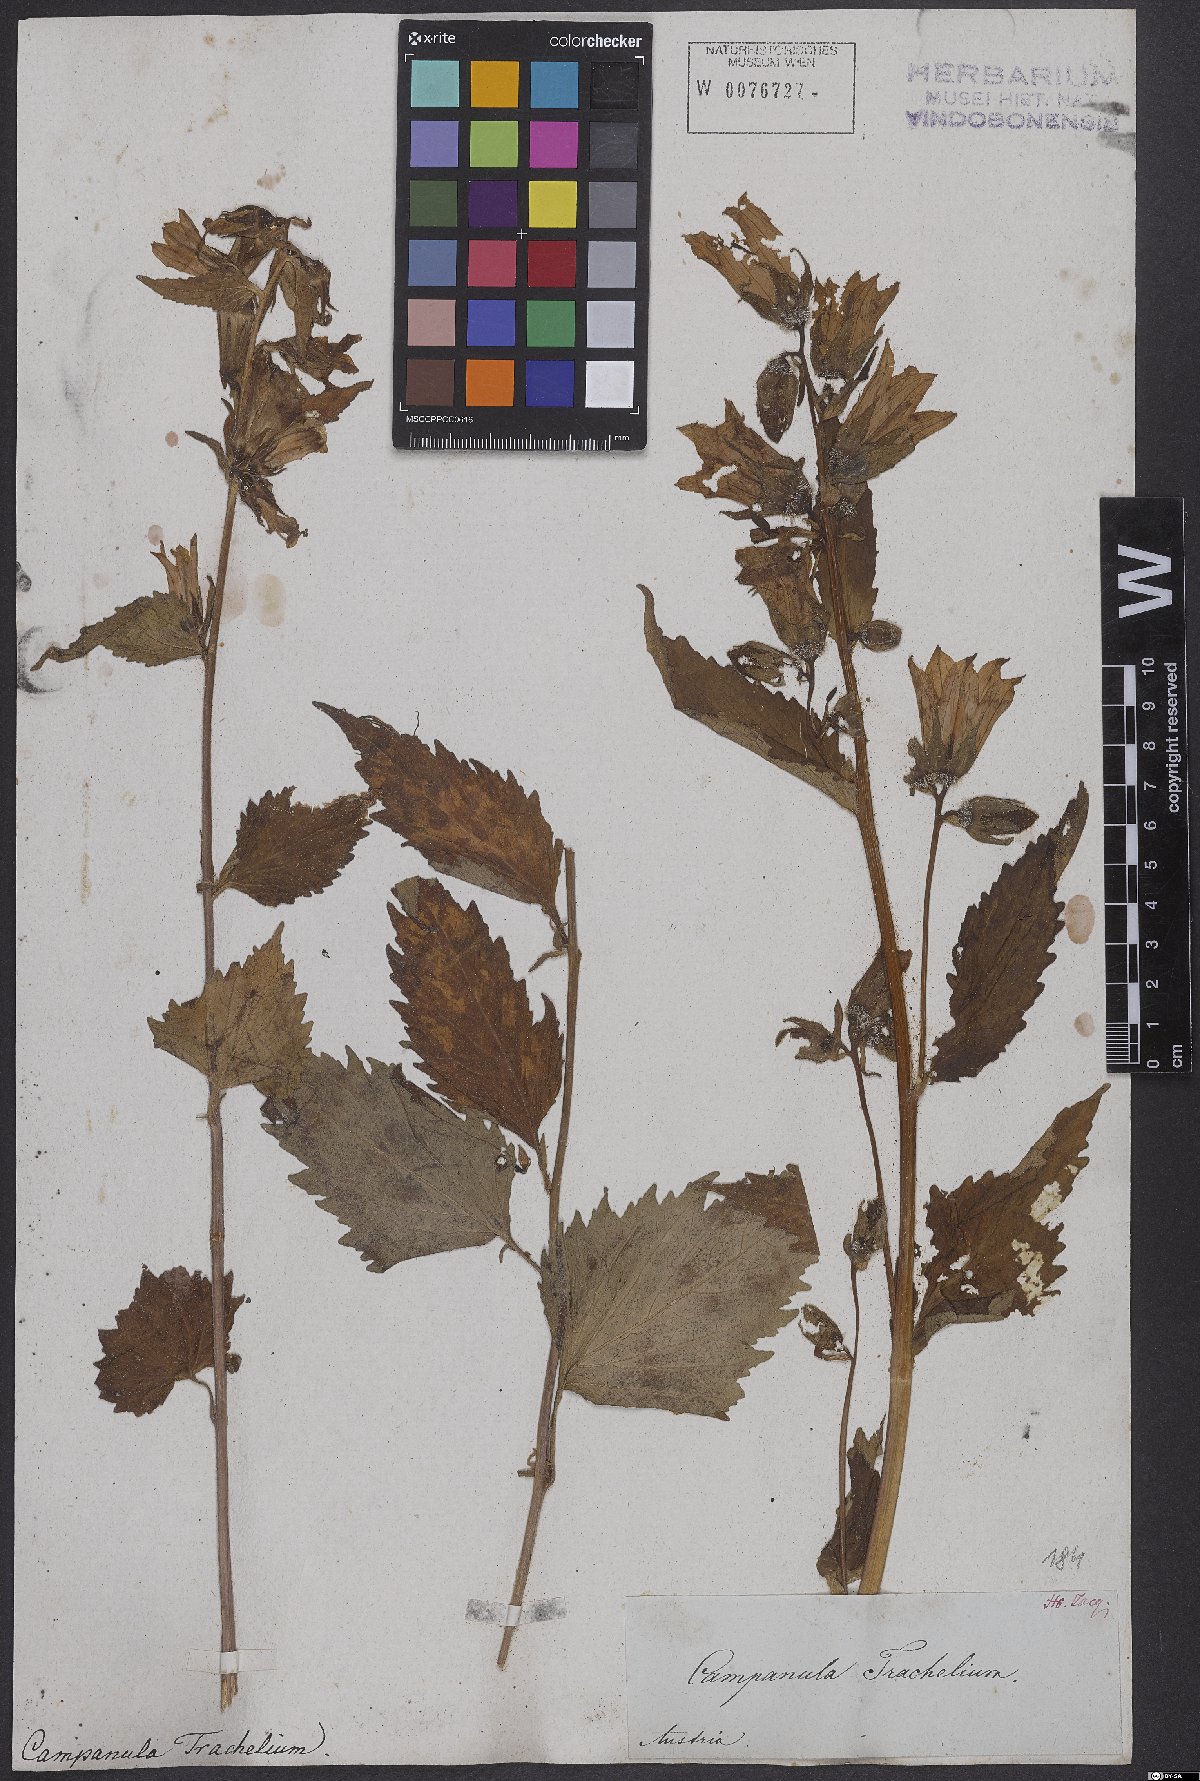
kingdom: Plantae
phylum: Tracheophyta
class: Magnoliopsida
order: Asterales
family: Campanulaceae
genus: Campanula
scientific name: Campanula trachelium
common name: Nettle-leaved bellflower
